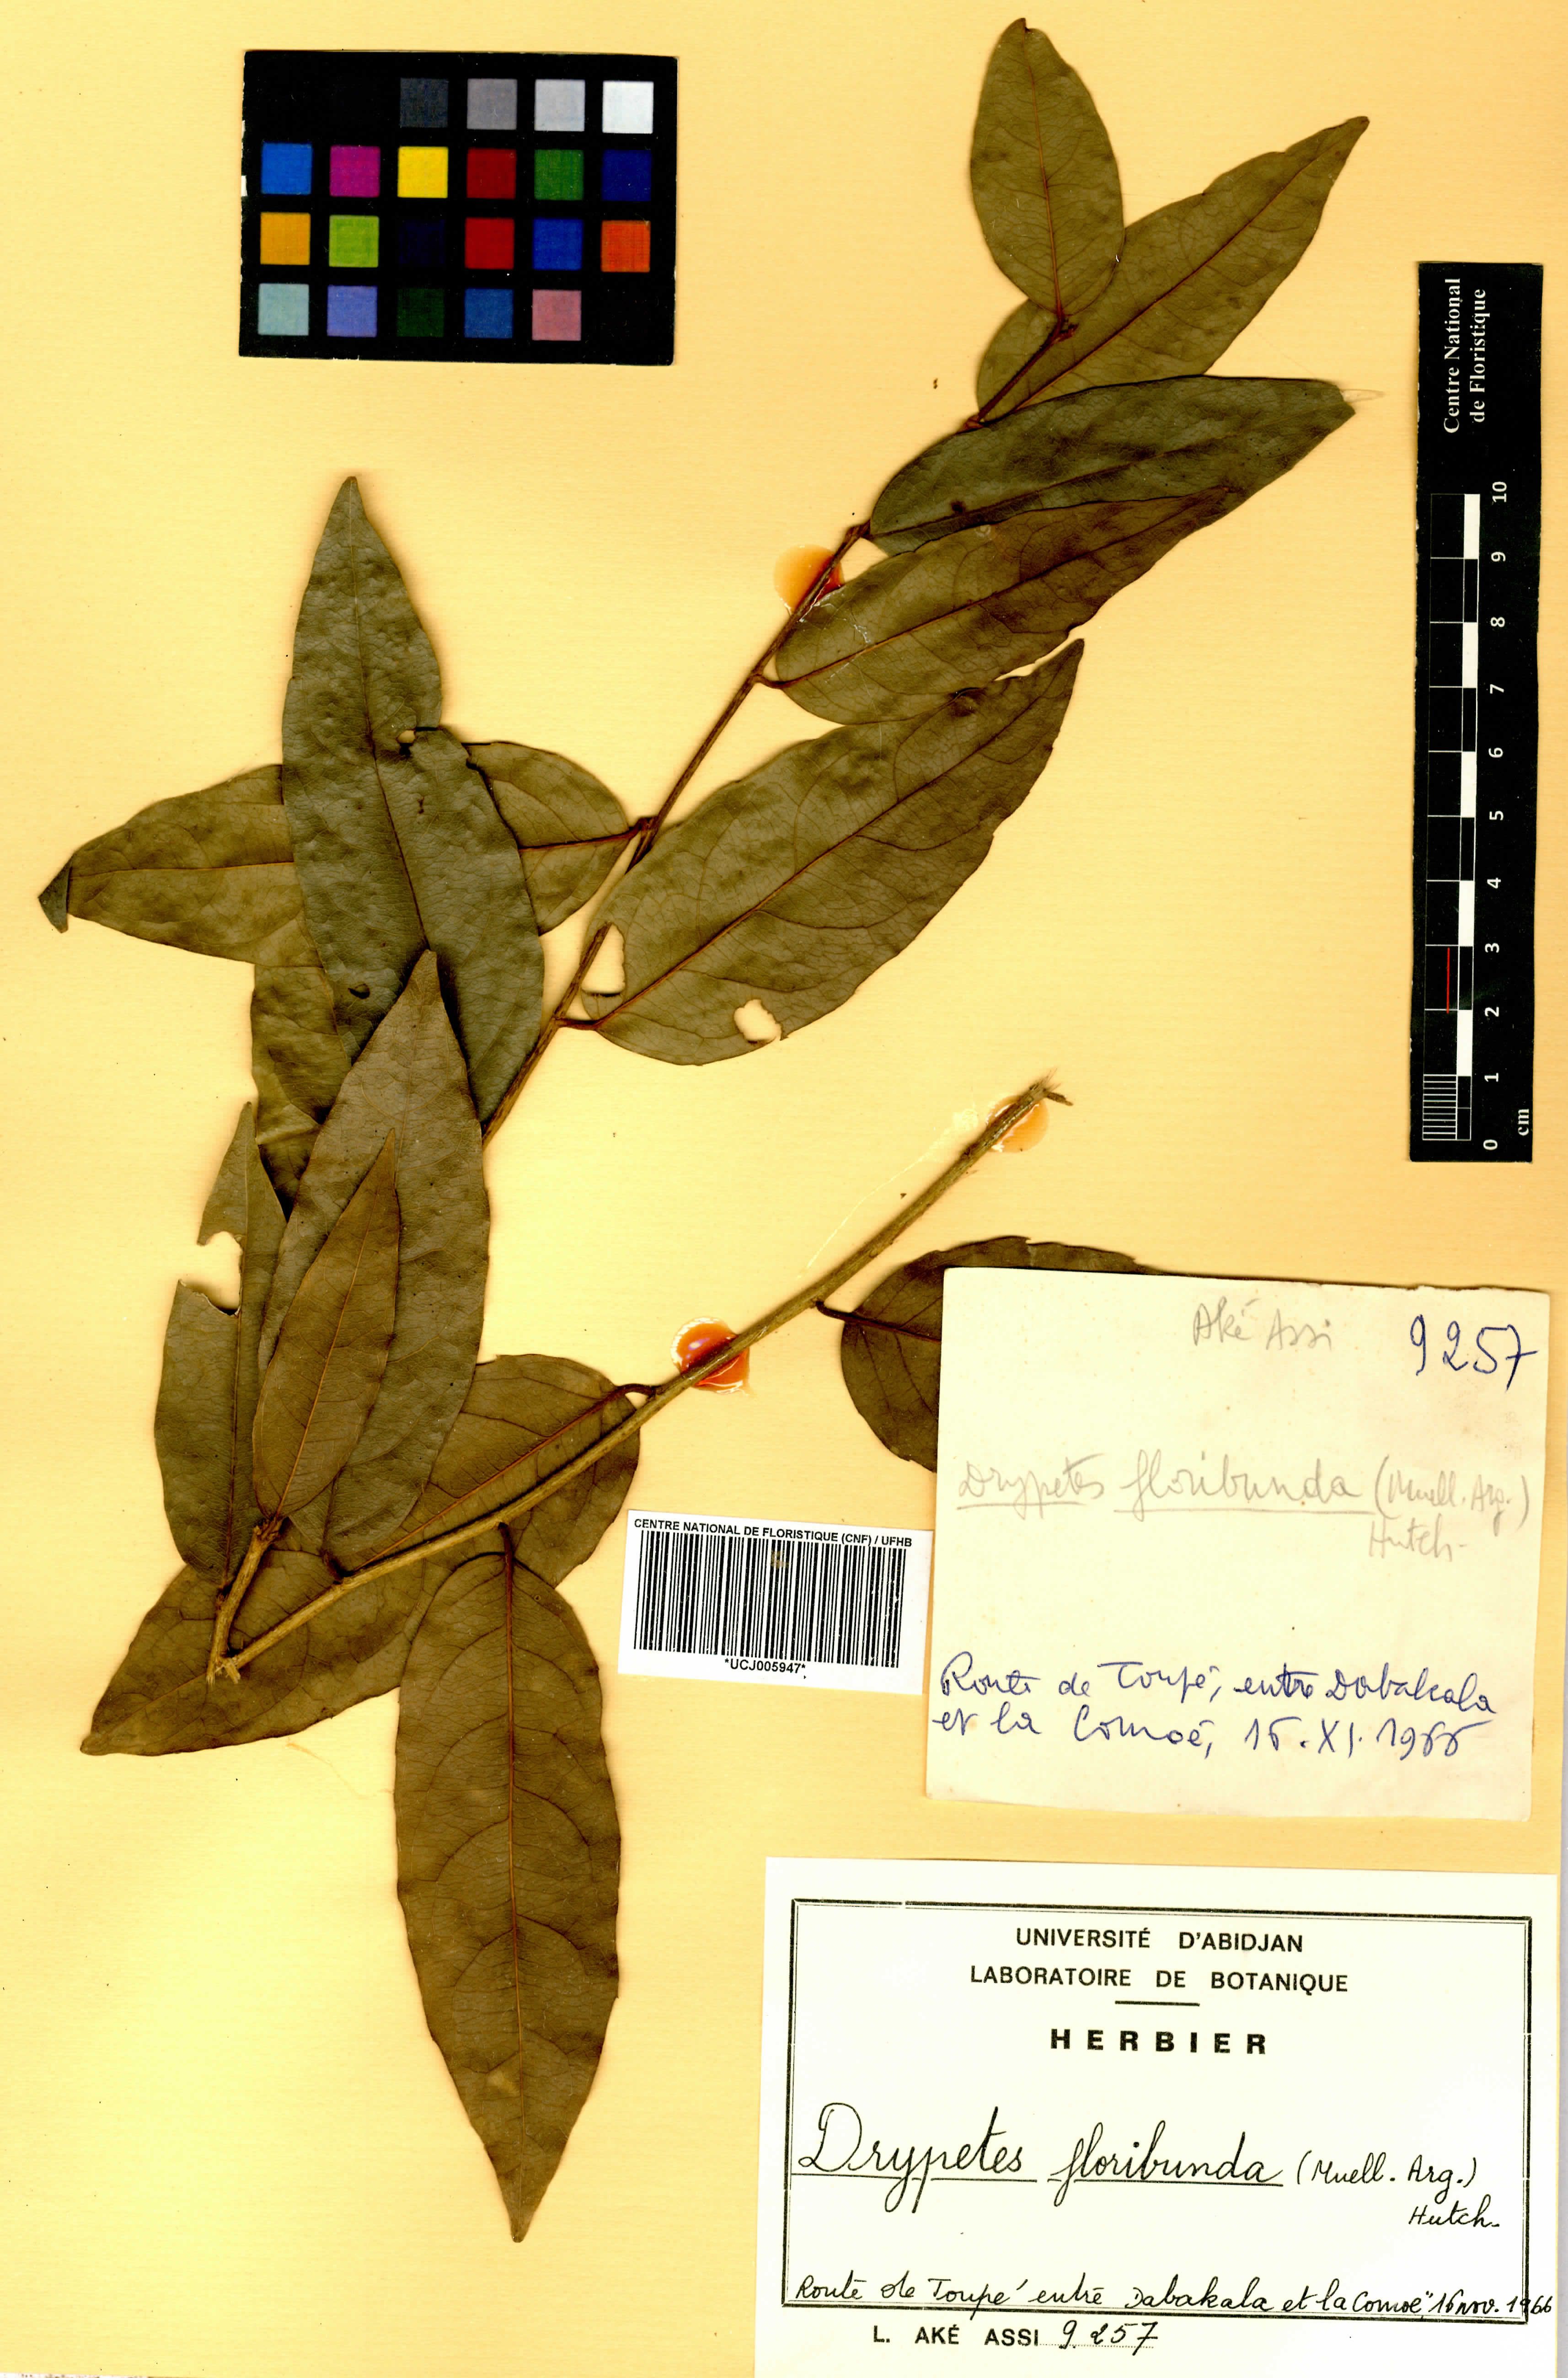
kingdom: Plantae
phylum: Tracheophyta
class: Magnoliopsida
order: Malpighiales
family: Putranjivaceae
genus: Drypetes
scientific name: Drypetes floribunda
